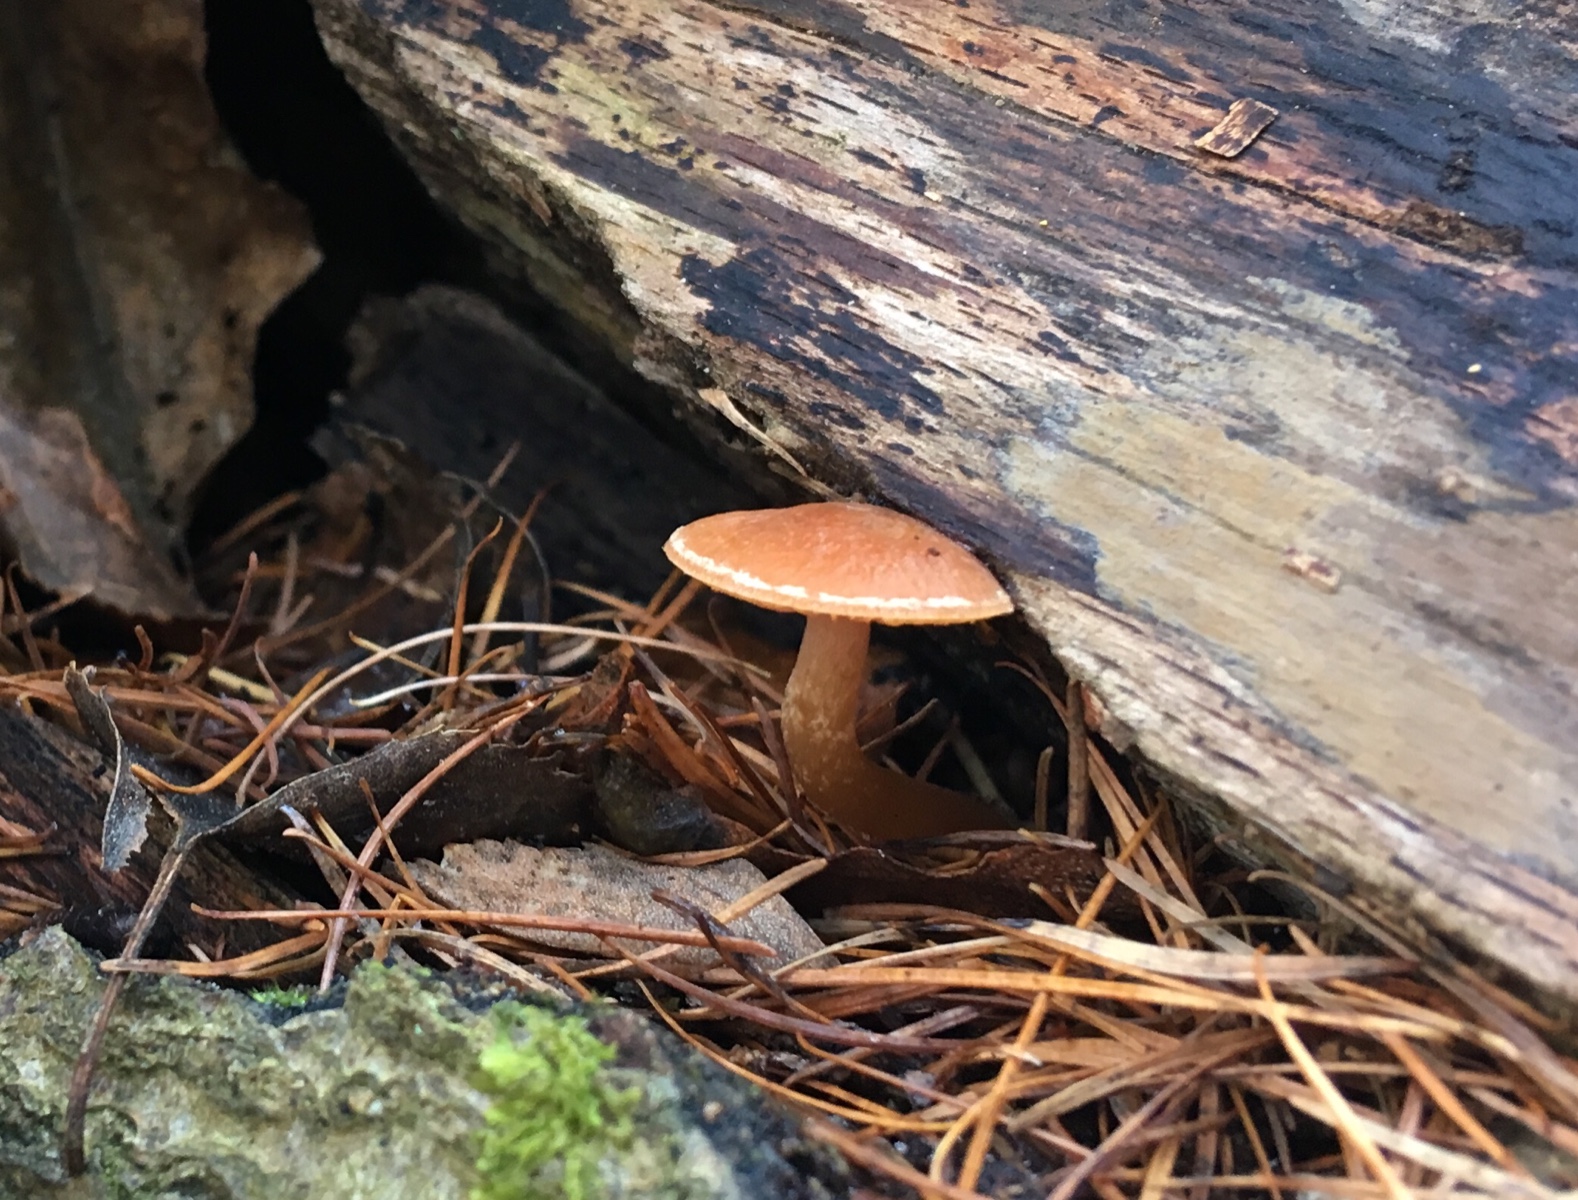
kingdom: Fungi
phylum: Basidiomycota
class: Agaricomycetes
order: Agaricales
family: Tubariaceae
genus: Tubaria
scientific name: Tubaria furfuracea
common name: kliddet fnughat
